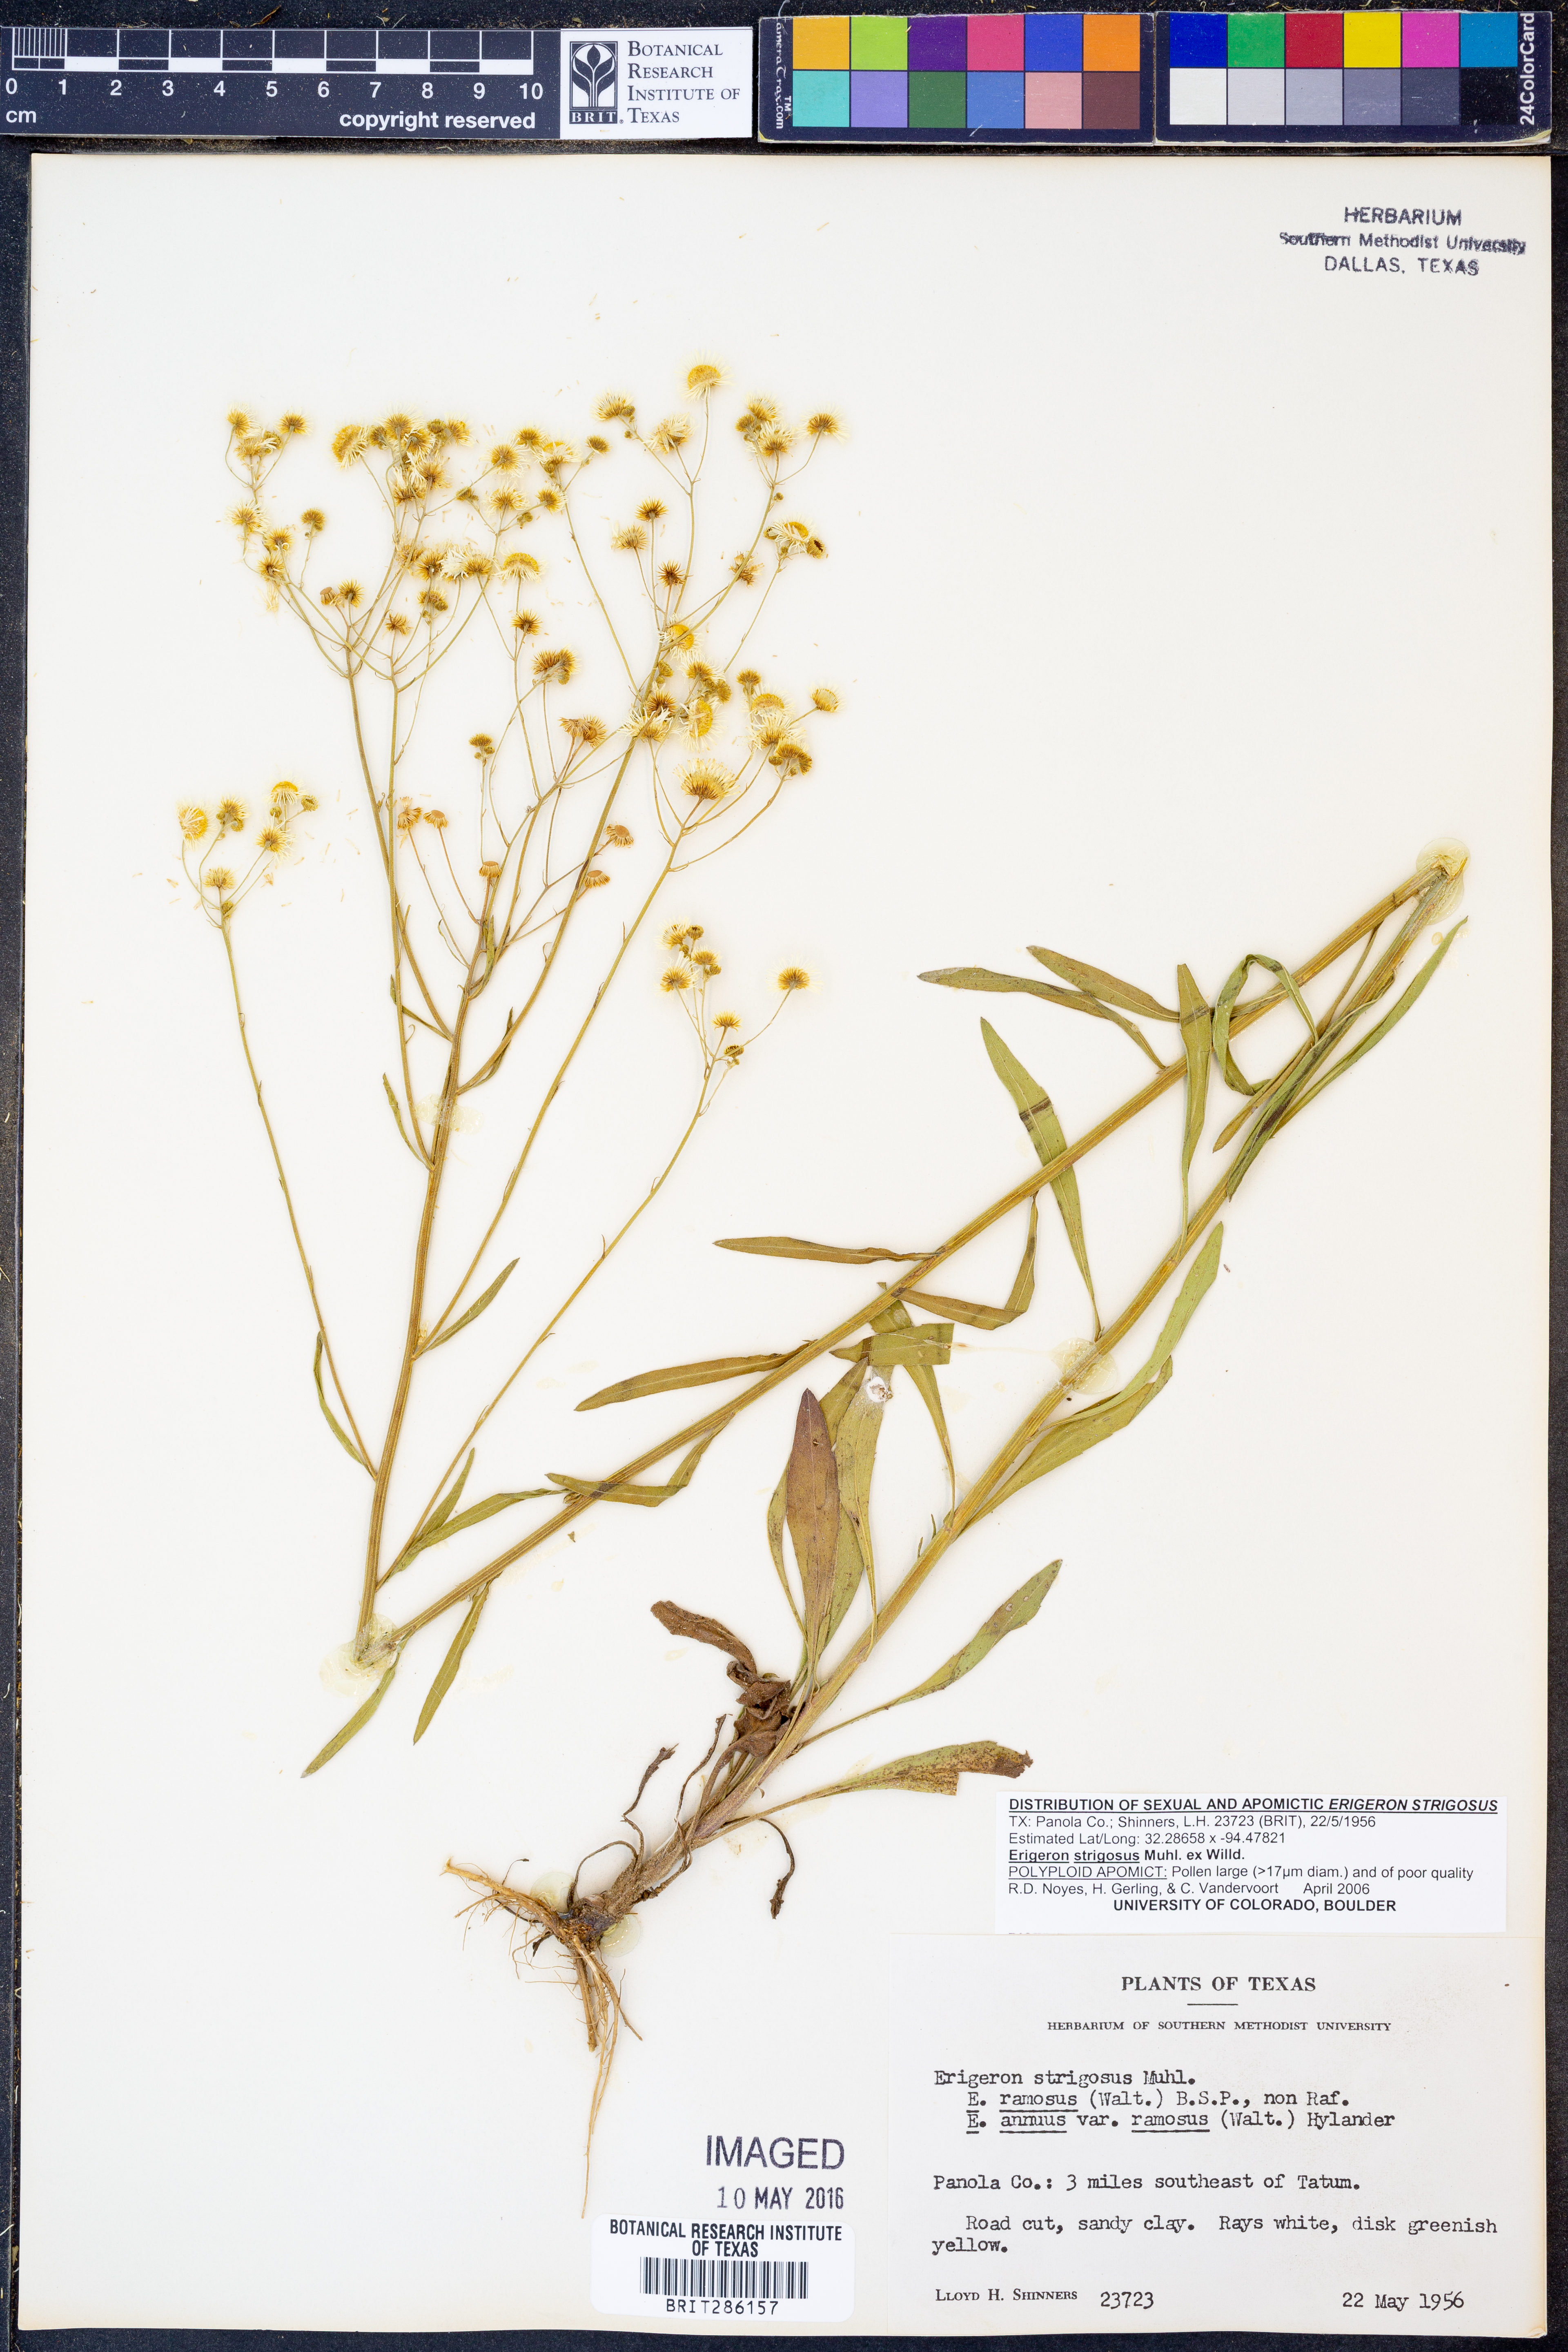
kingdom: Plantae
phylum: Tracheophyta
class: Magnoliopsida
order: Asterales
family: Asteraceae
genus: Erigeron
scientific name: Erigeron strigosus
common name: Common eastern fleabane
